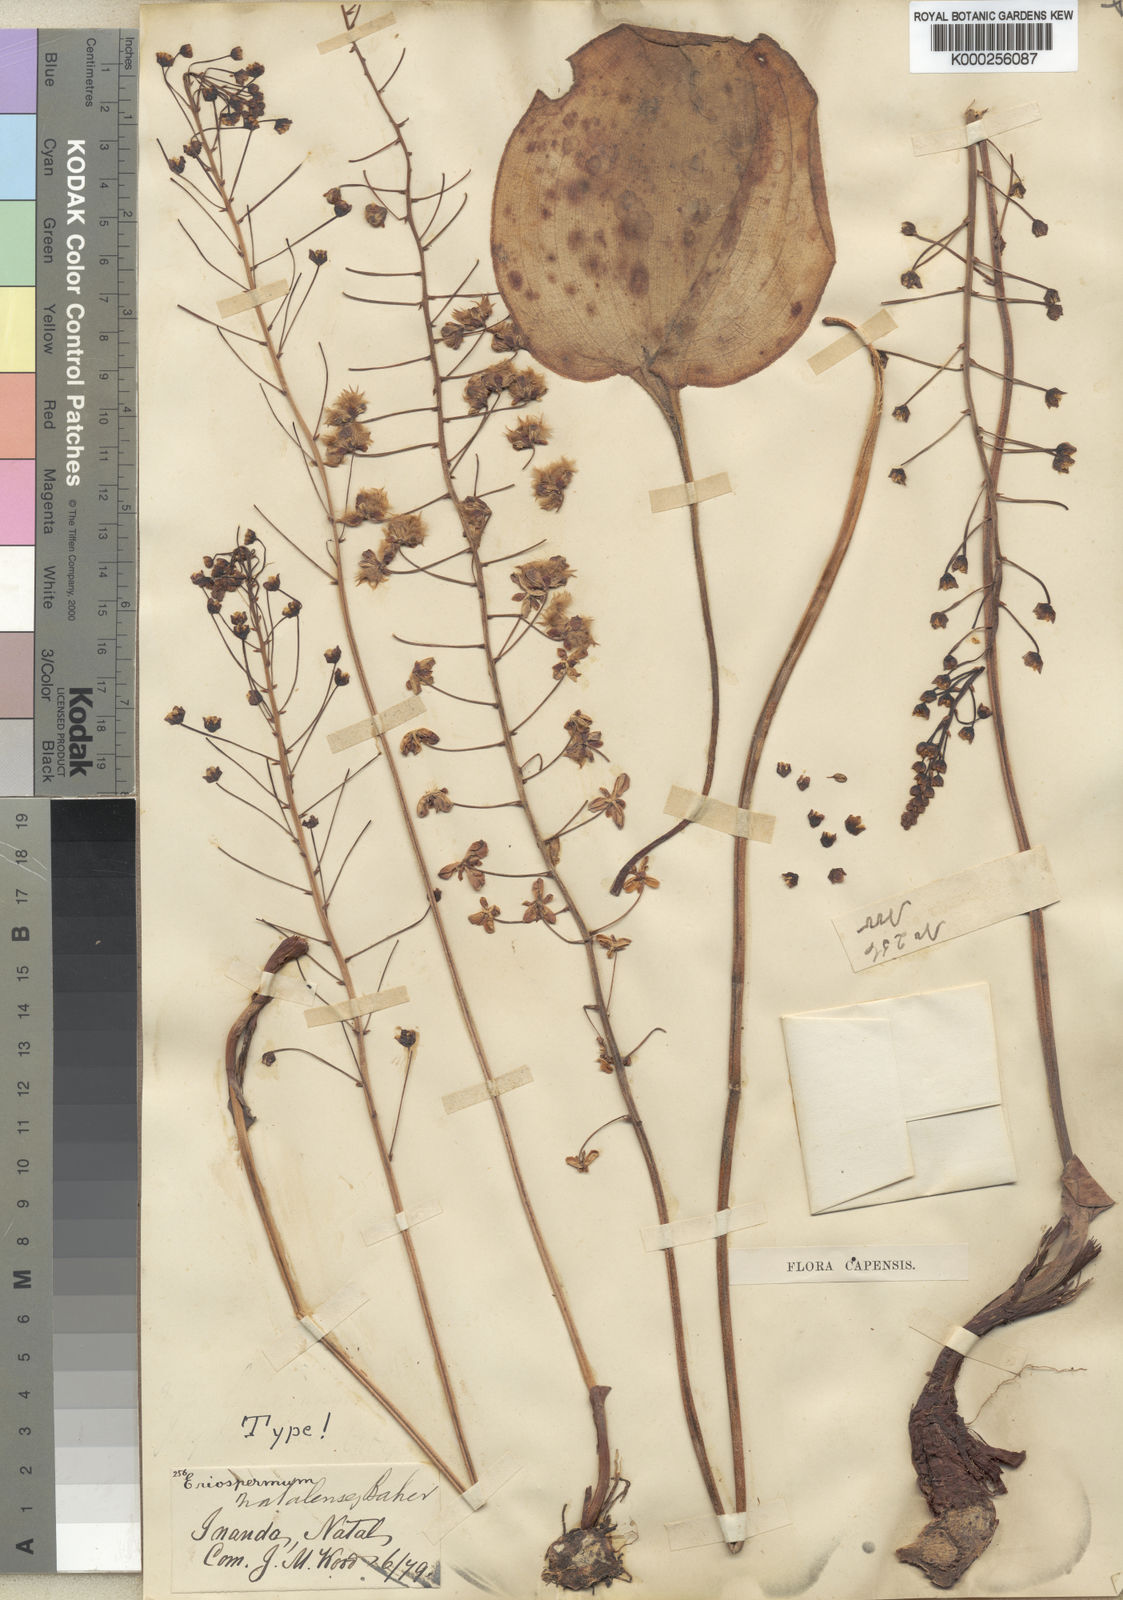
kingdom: Plantae
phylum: Tracheophyta
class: Liliopsida
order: Asparagales
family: Asparagaceae
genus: Eriospermum
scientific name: Eriospermum cooperi
